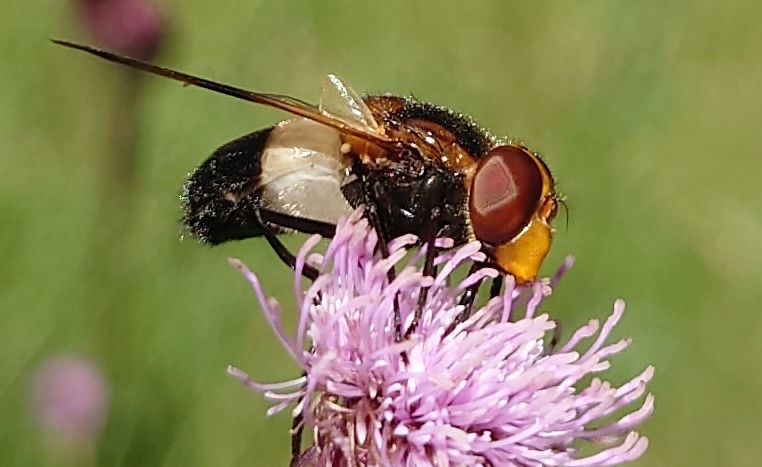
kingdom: Animalia
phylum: Arthropoda
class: Insecta
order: Diptera
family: Syrphidae
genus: Volucella
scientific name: Volucella pellucens
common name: Hvidbåndet humlesvirreflue
